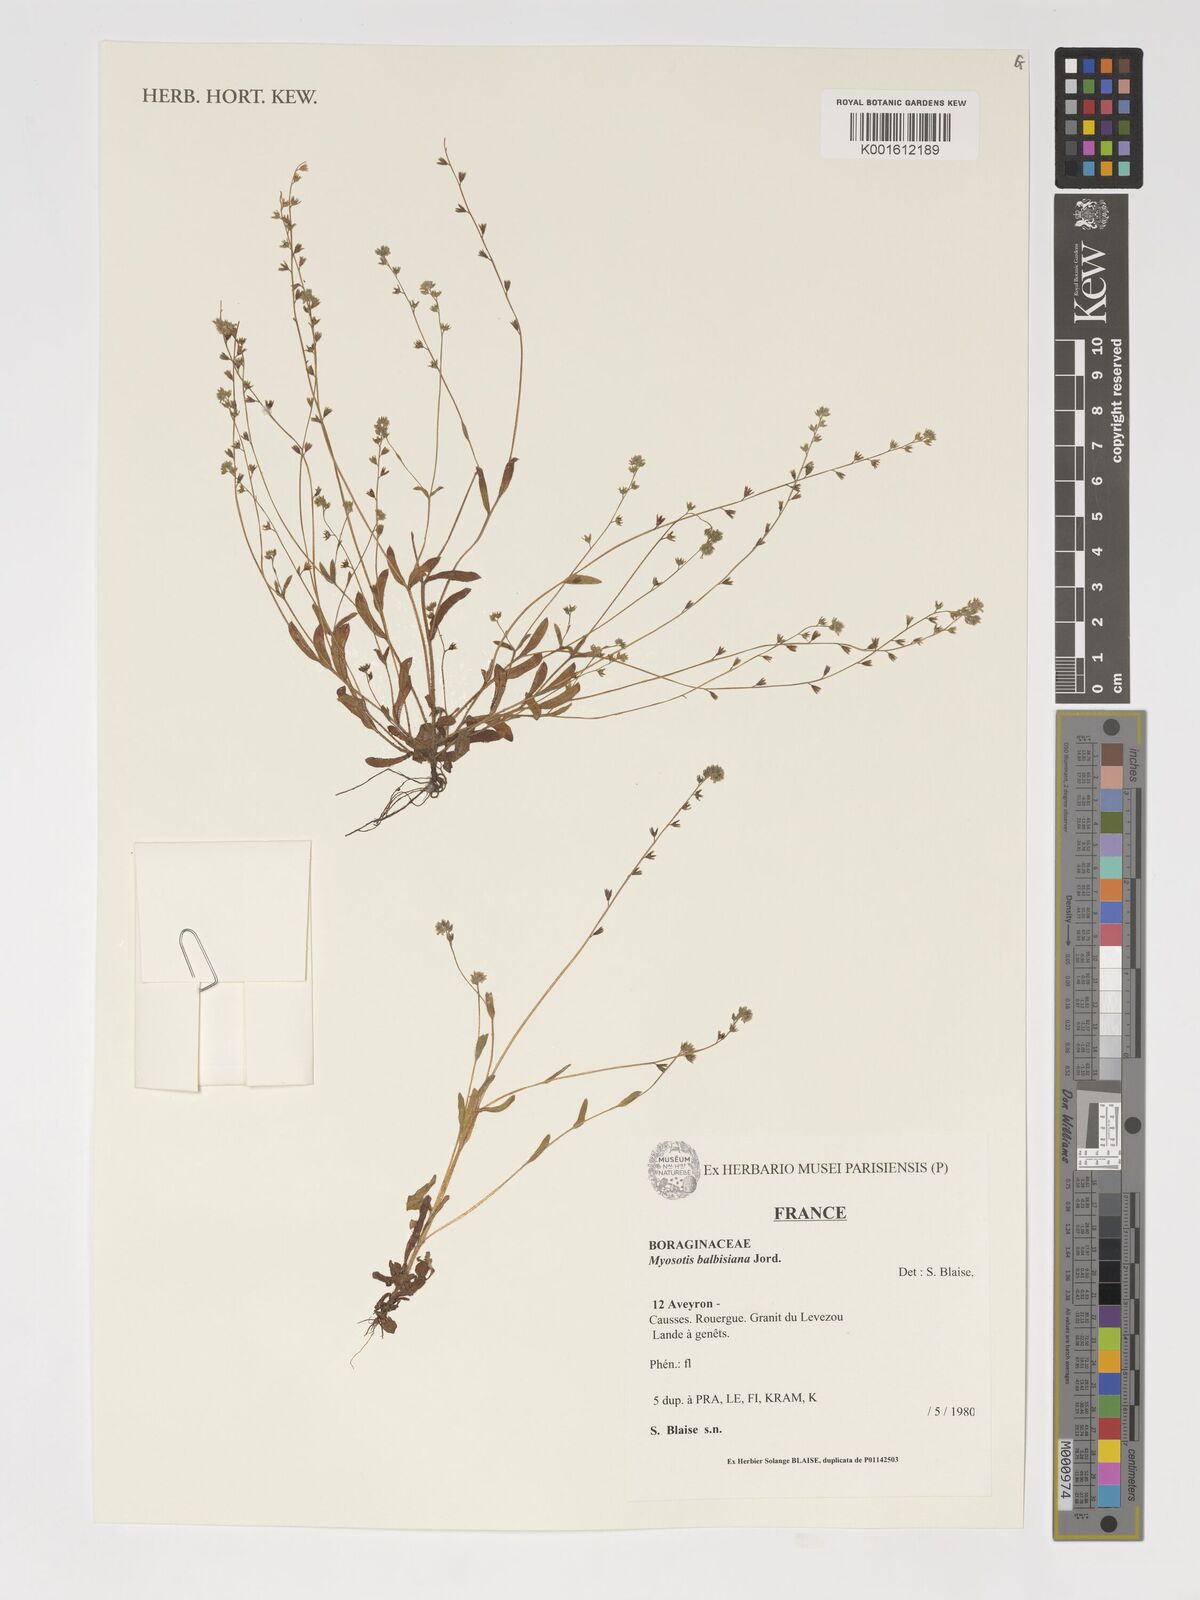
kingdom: Plantae
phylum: Tracheophyta
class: Magnoliopsida
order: Boraginales
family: Boraginaceae
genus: Myosotis
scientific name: Myosotis balbisiana
